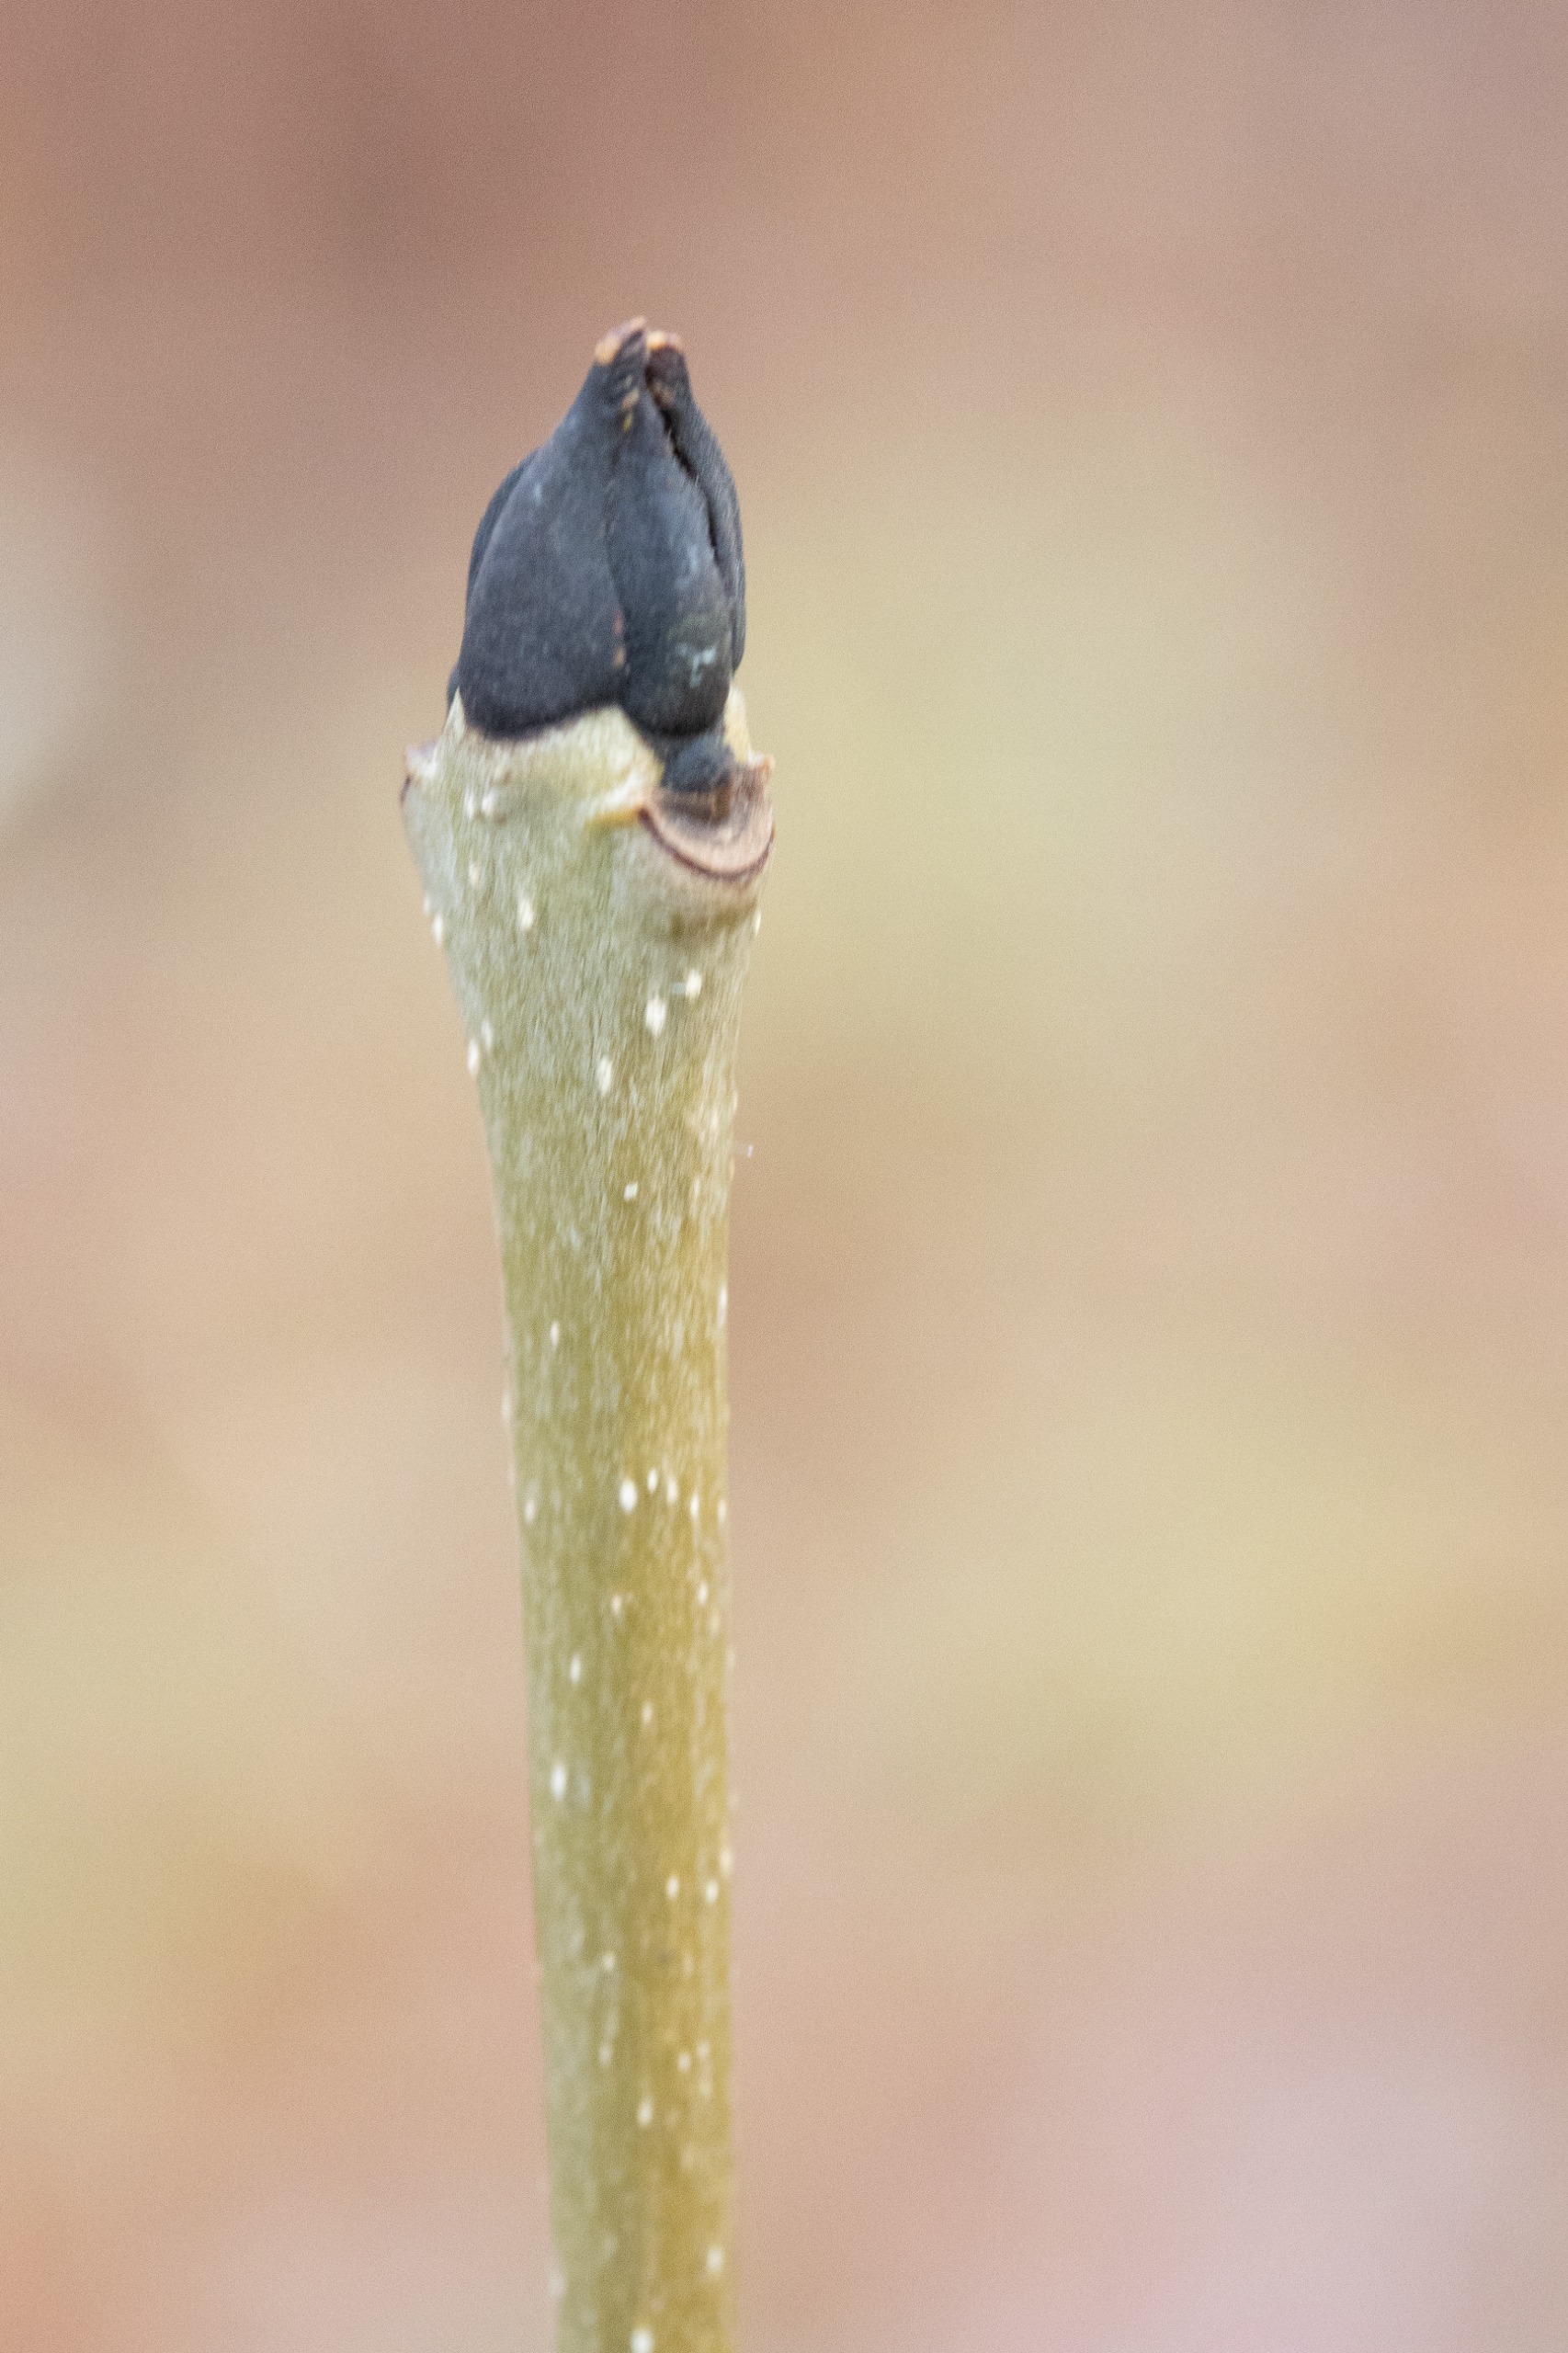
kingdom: Plantae
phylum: Tracheophyta
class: Magnoliopsida
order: Lamiales
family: Oleaceae
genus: Fraxinus
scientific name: Fraxinus excelsior
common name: Ask
